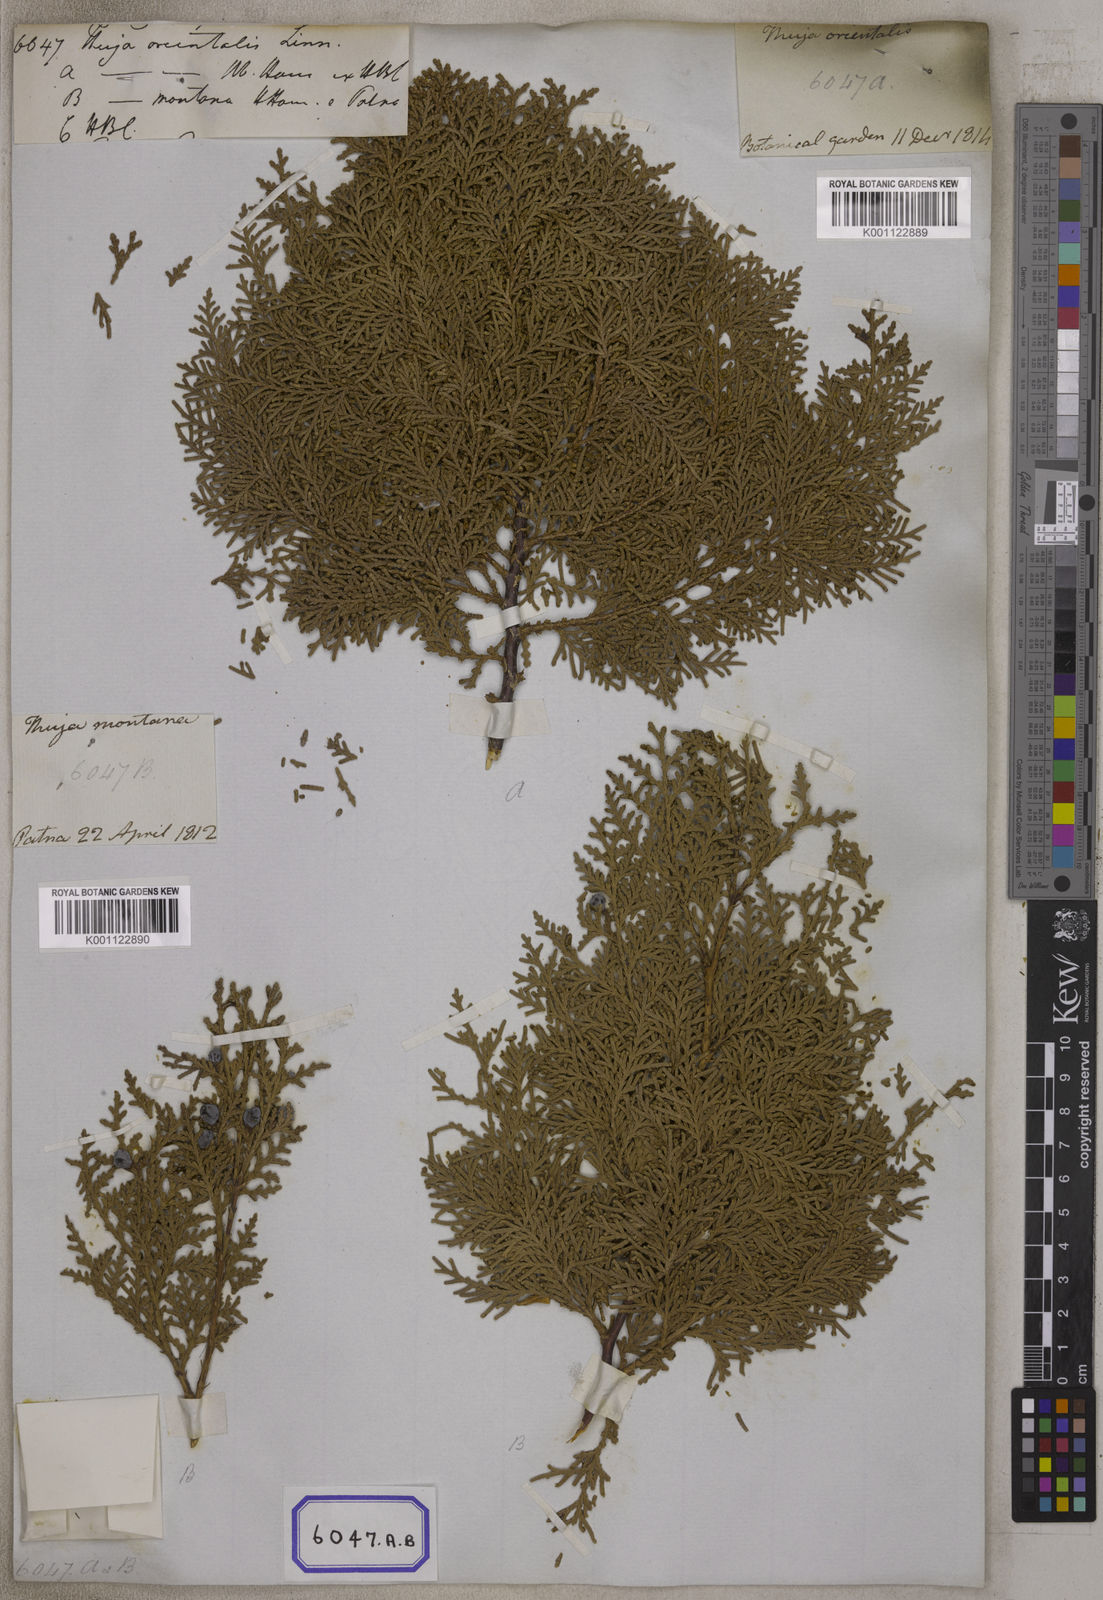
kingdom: Plantae
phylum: Tracheophyta
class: Pinopsida
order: Pinales
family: Cupressaceae
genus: Platycladus
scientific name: Platycladus orientalis
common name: Chinese thuja
